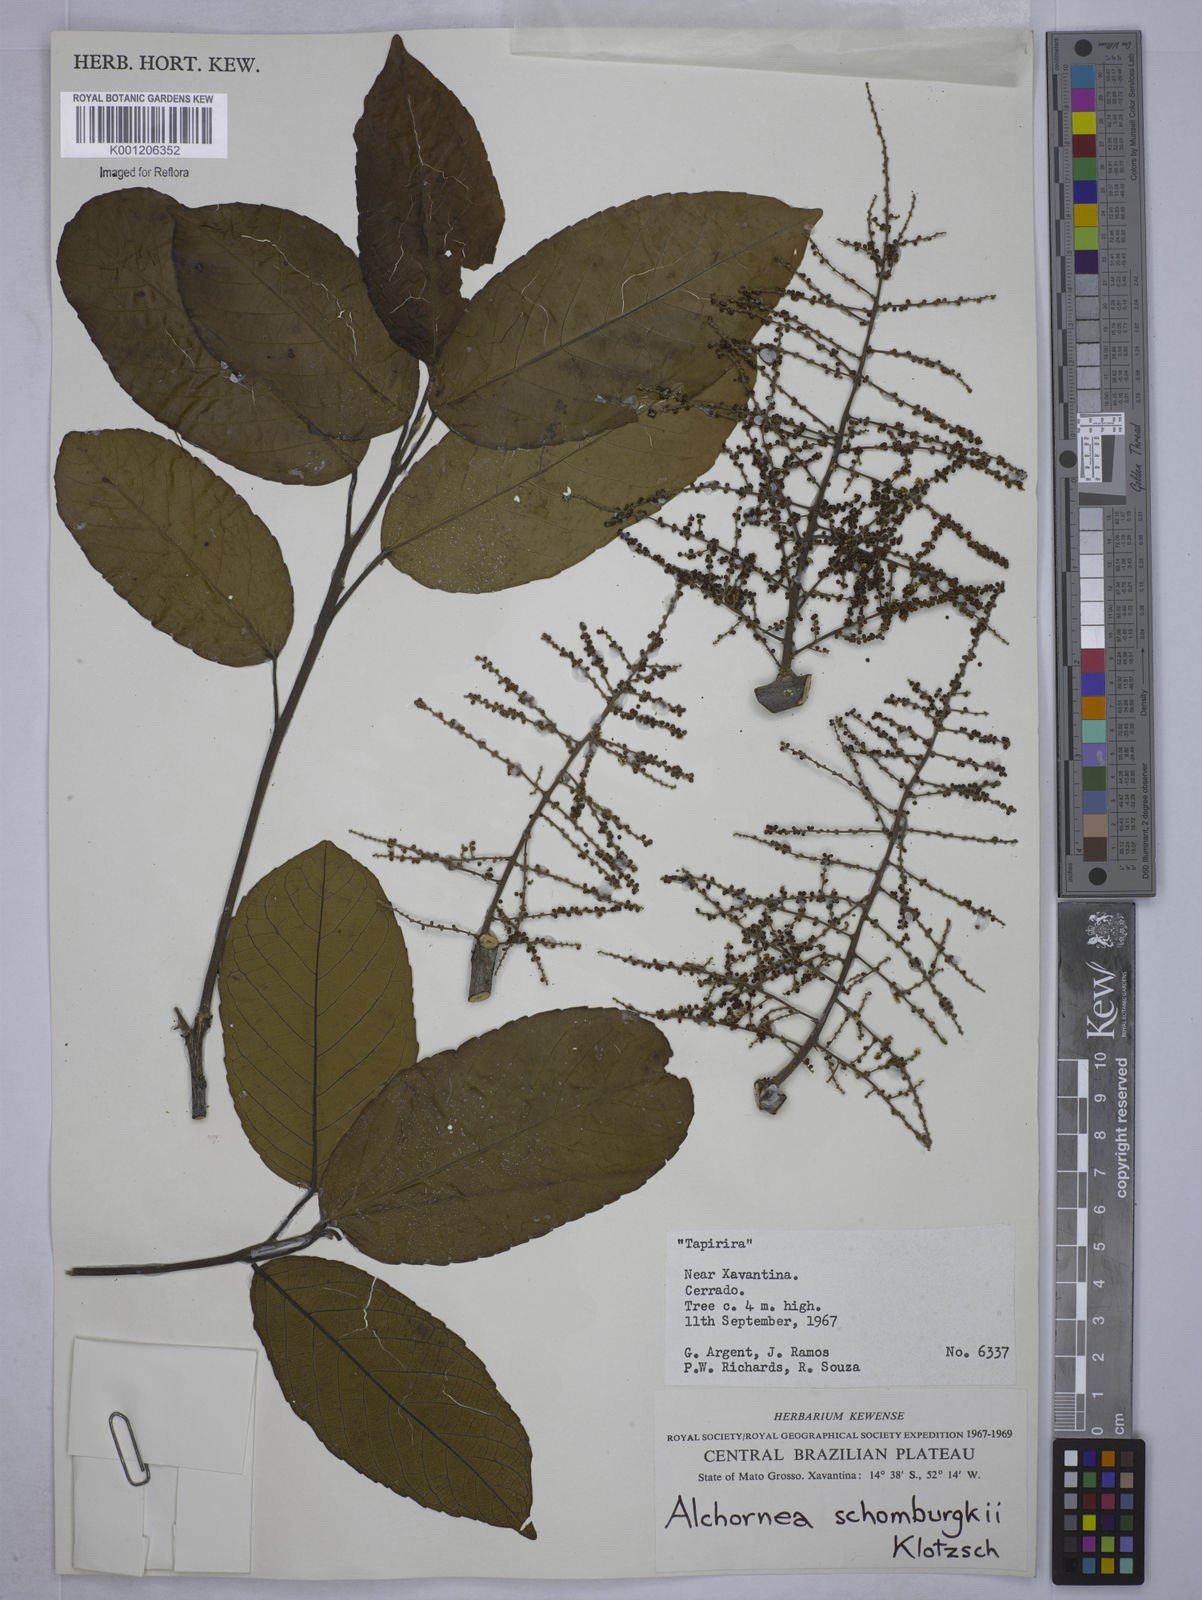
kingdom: Plantae
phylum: Tracheophyta
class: Magnoliopsida
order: Malpighiales
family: Euphorbiaceae
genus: Alchornea
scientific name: Alchornea discolor
